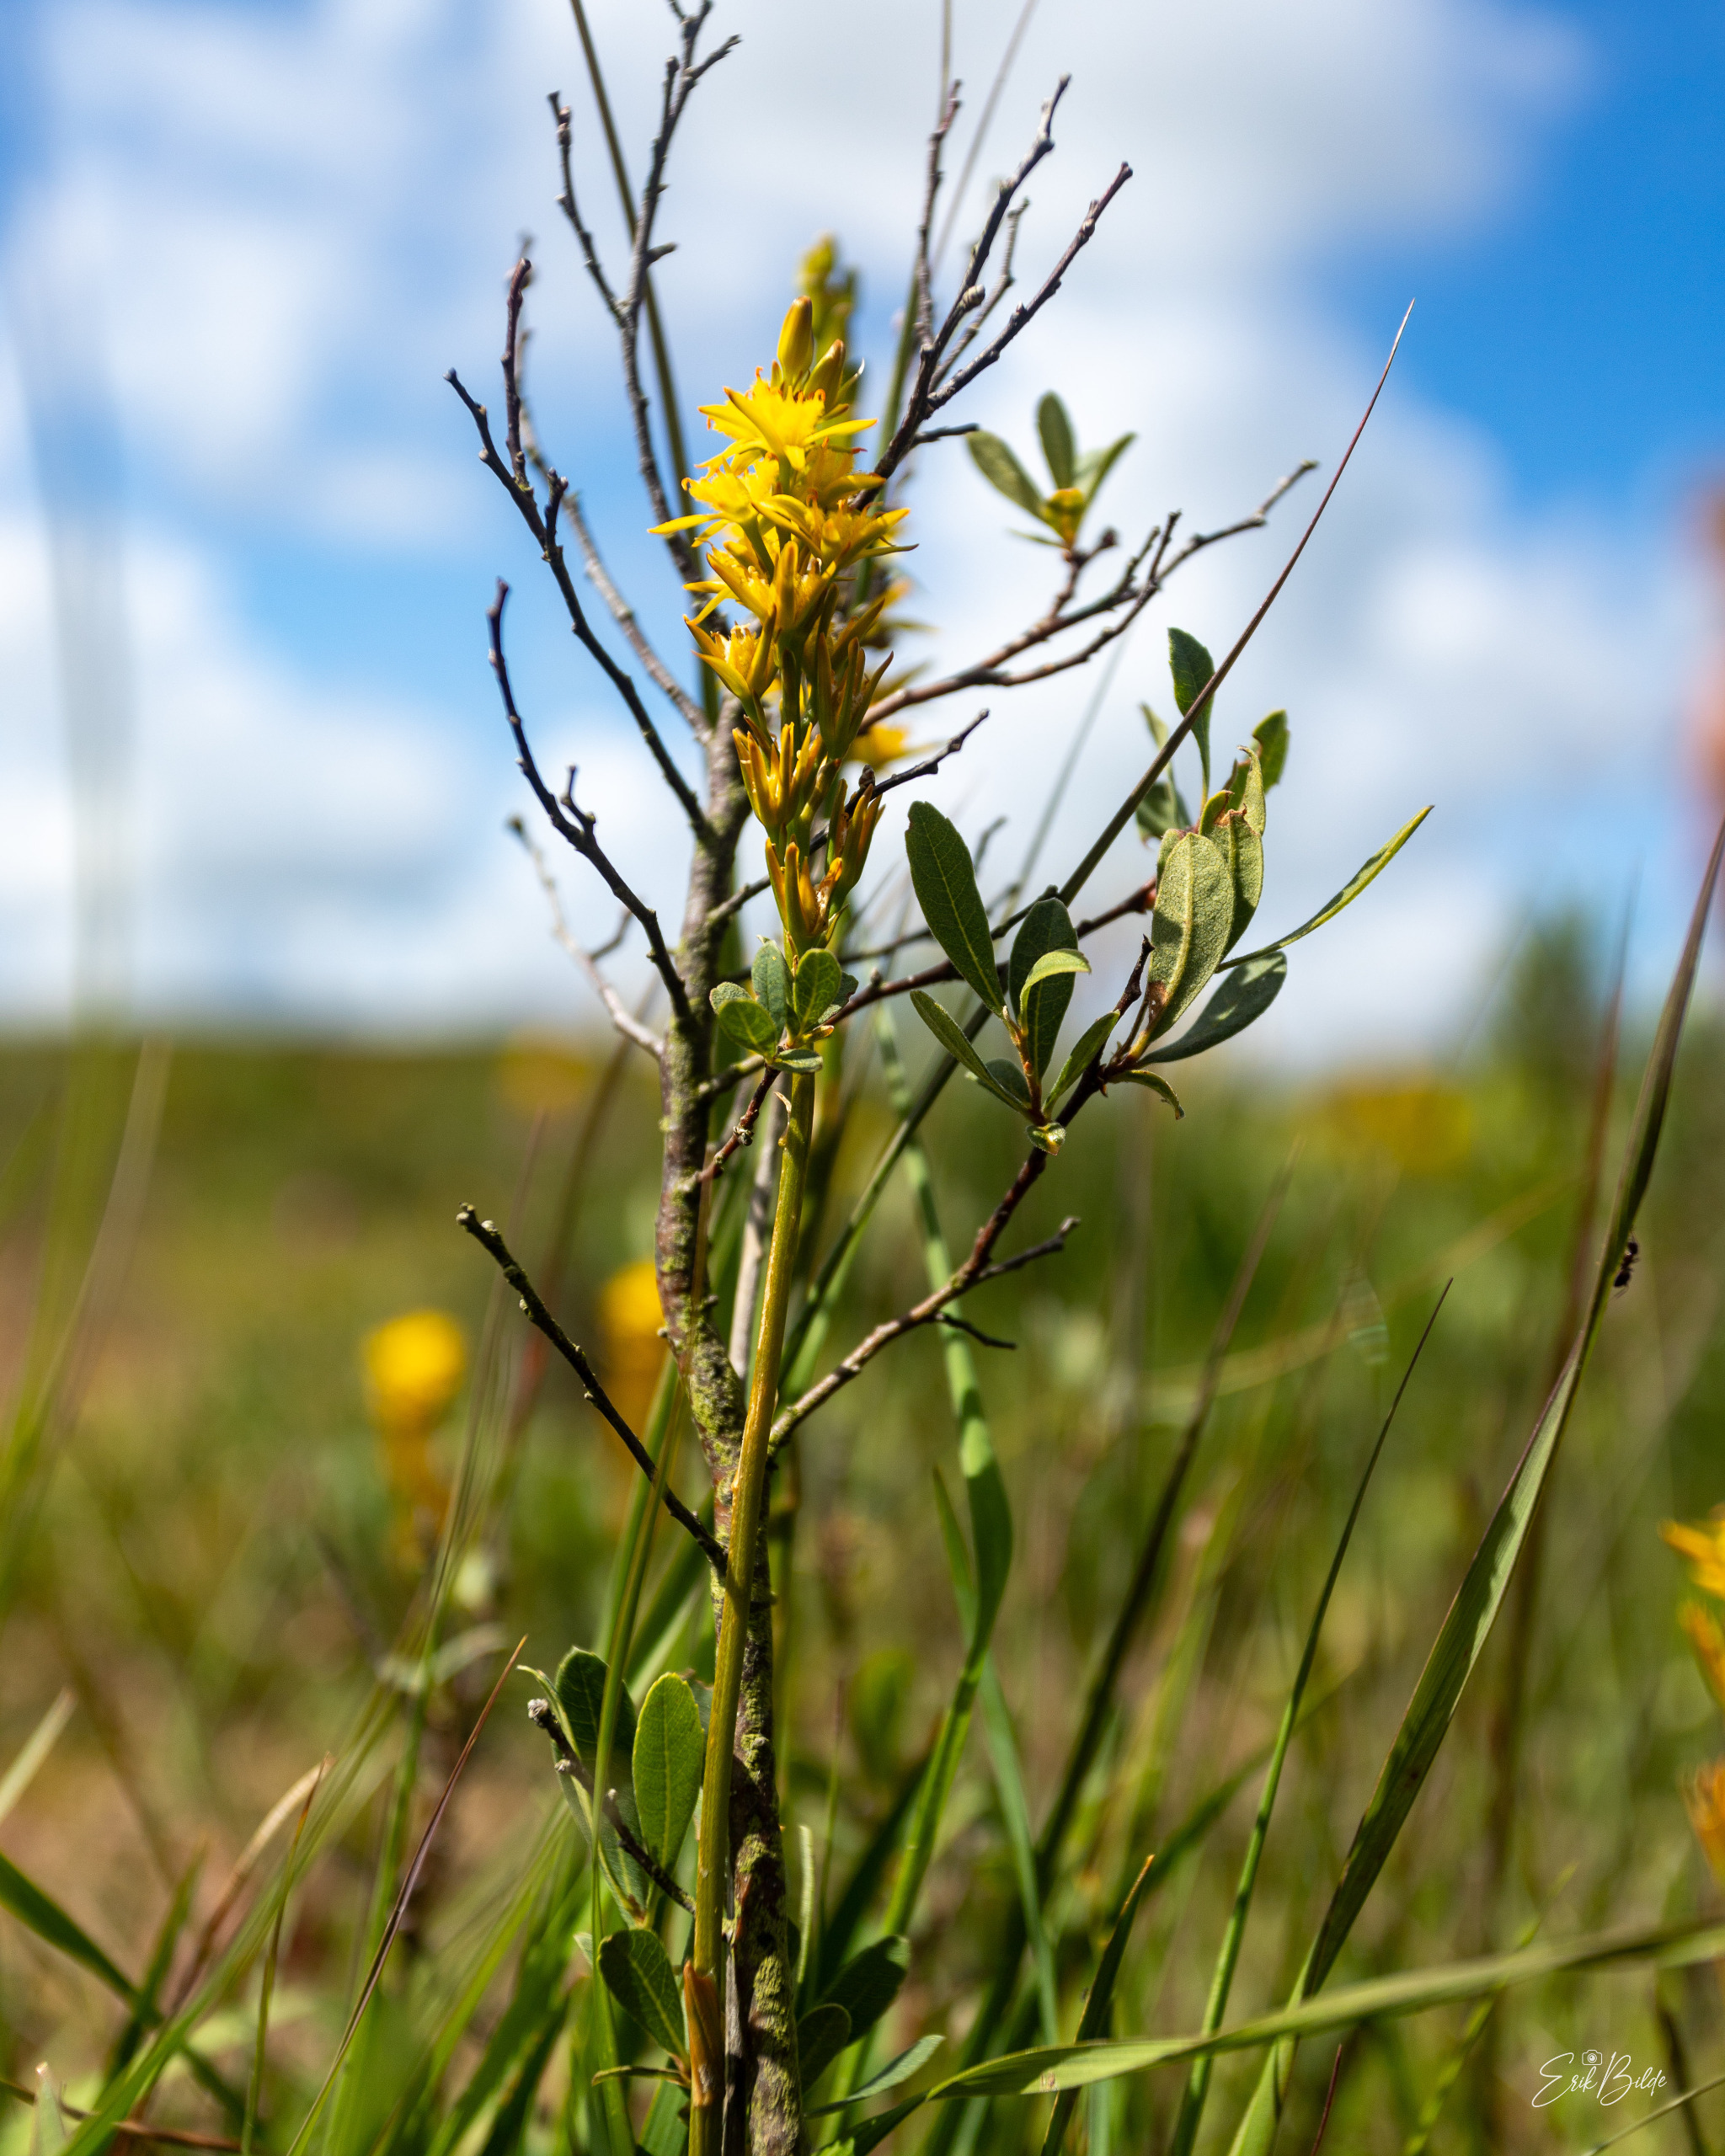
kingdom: Plantae
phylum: Tracheophyta
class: Liliopsida
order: Dioscoreales
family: Nartheciaceae
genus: Narthecium
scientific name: Narthecium ossifragum
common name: Benbræk
